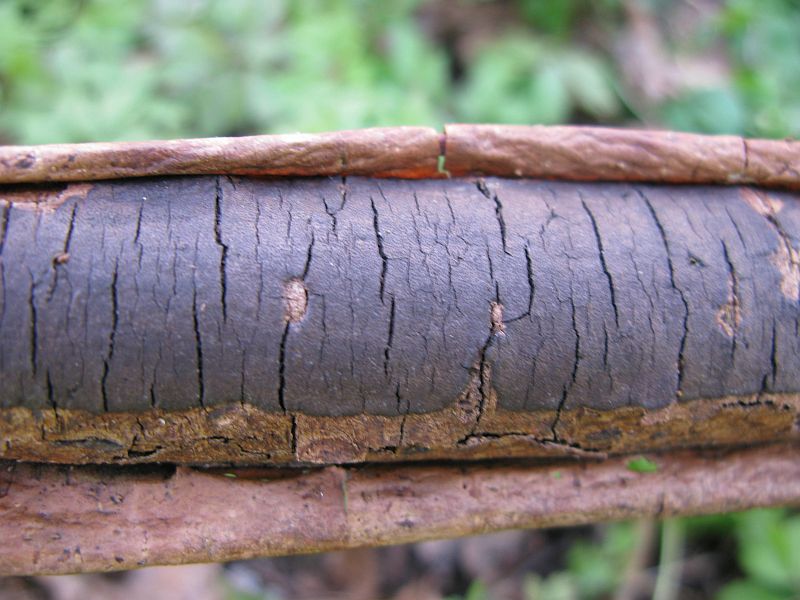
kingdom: Fungi
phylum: Ascomycota
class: Sordariomycetes
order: Xylariales
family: Diatrypaceae
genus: Diatrype
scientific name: Diatrype decorticata
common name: barksprænger-kulskorpe
